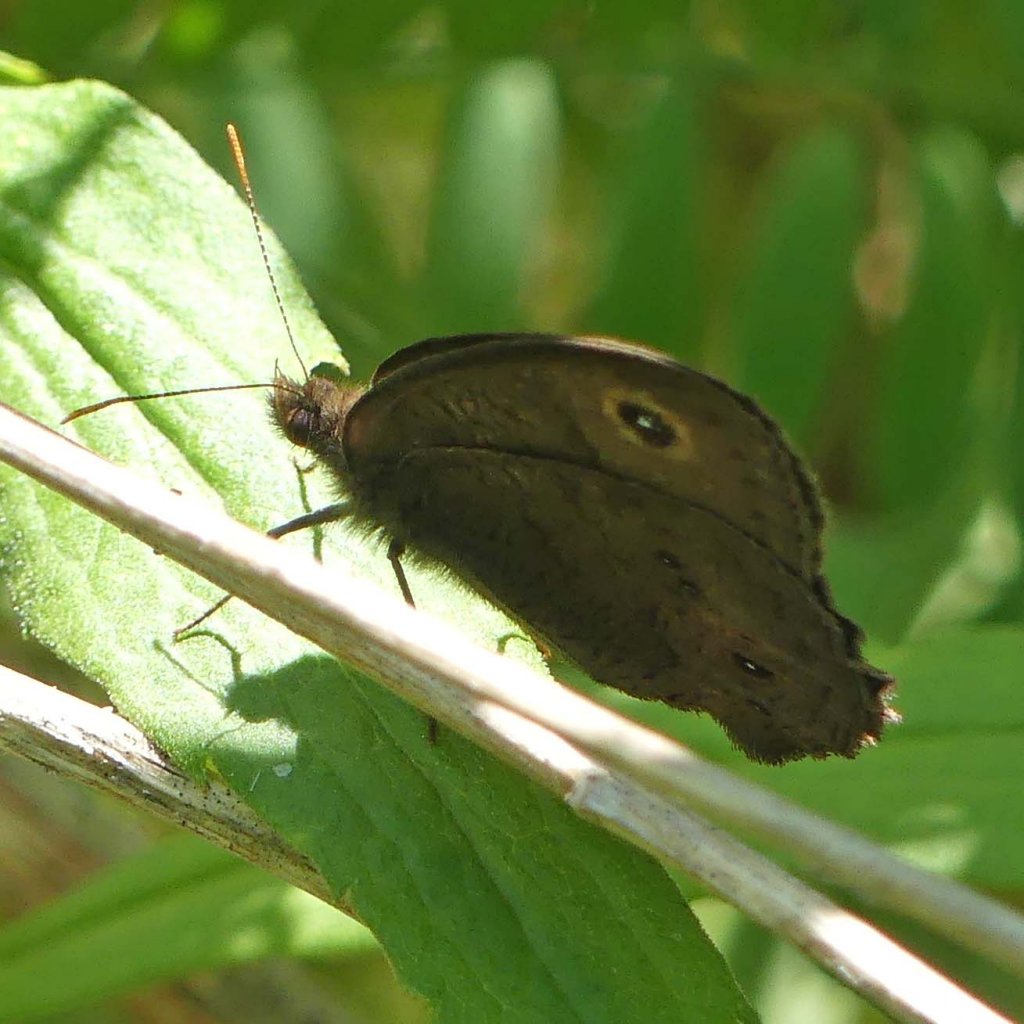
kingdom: Animalia
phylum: Arthropoda
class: Insecta
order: Lepidoptera
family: Nymphalidae
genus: Cercyonis
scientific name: Cercyonis pegala
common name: Common Wood-Nymph
